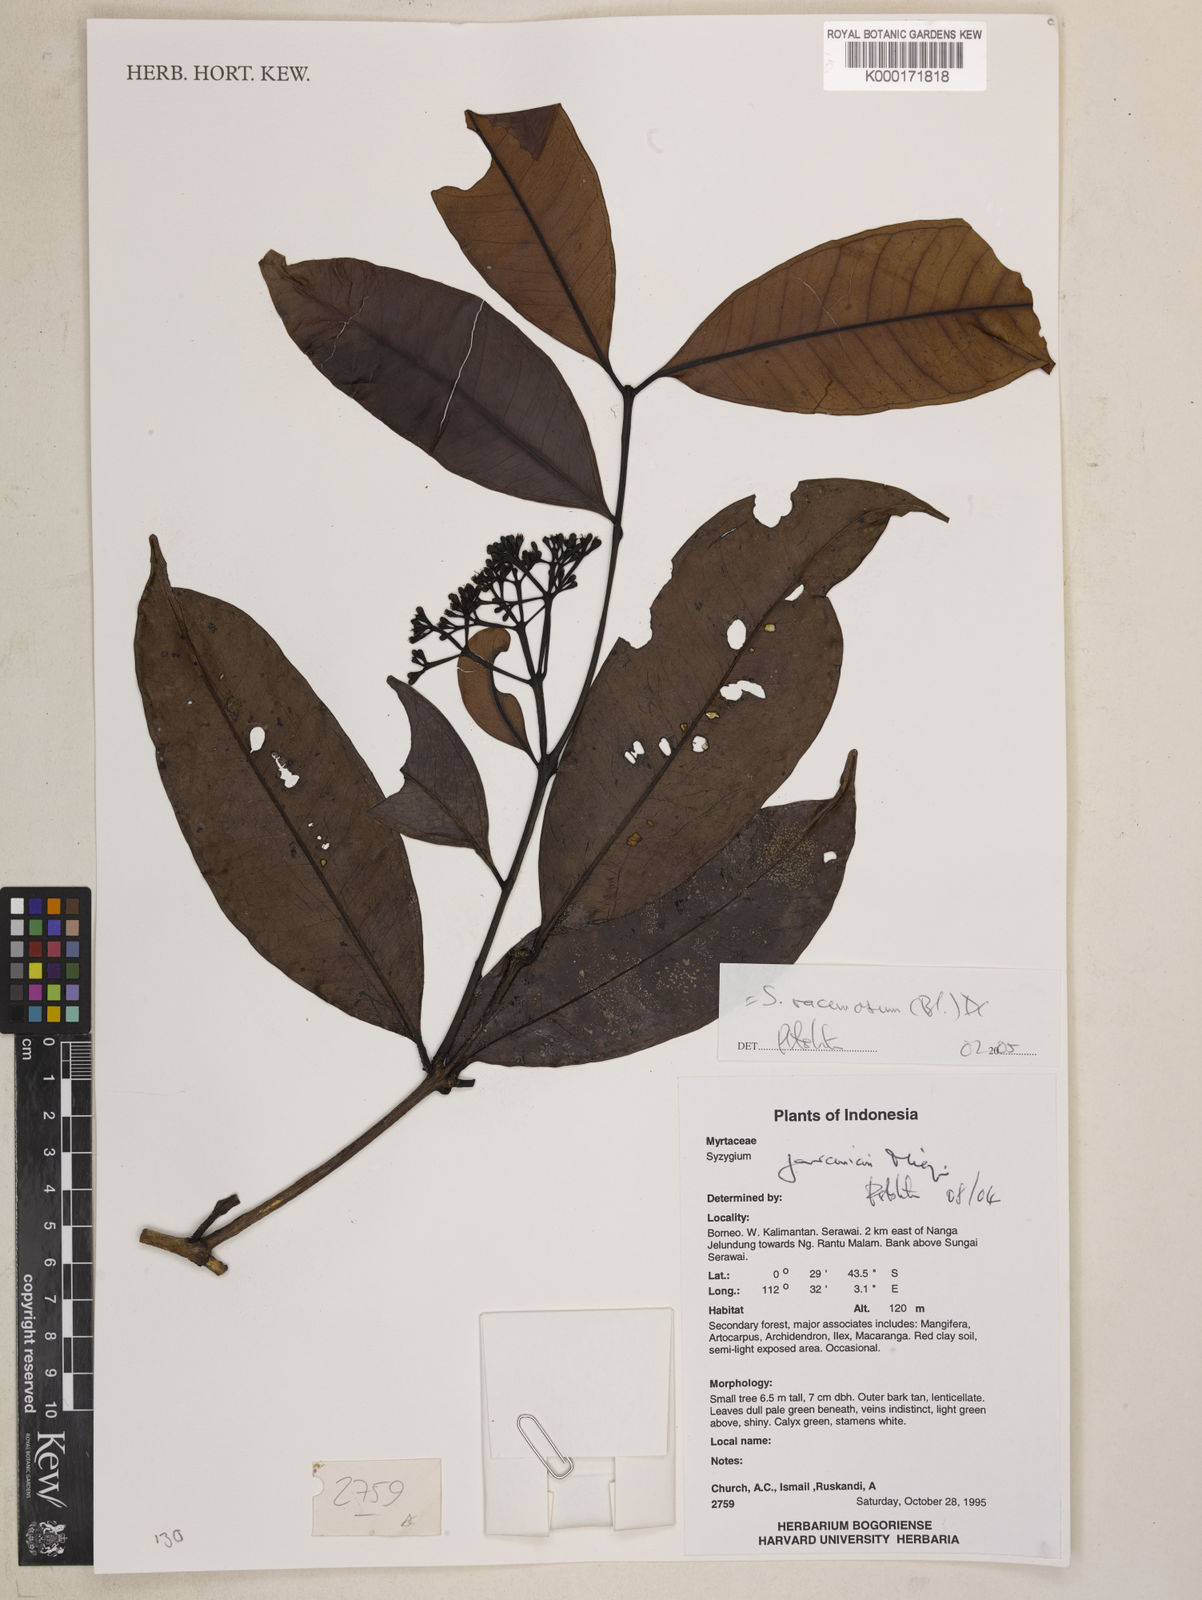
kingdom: Plantae
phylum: Tracheophyta
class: Magnoliopsida
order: Myrtales
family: Myrtaceae
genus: Syzygium
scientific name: Syzygium racemosum
